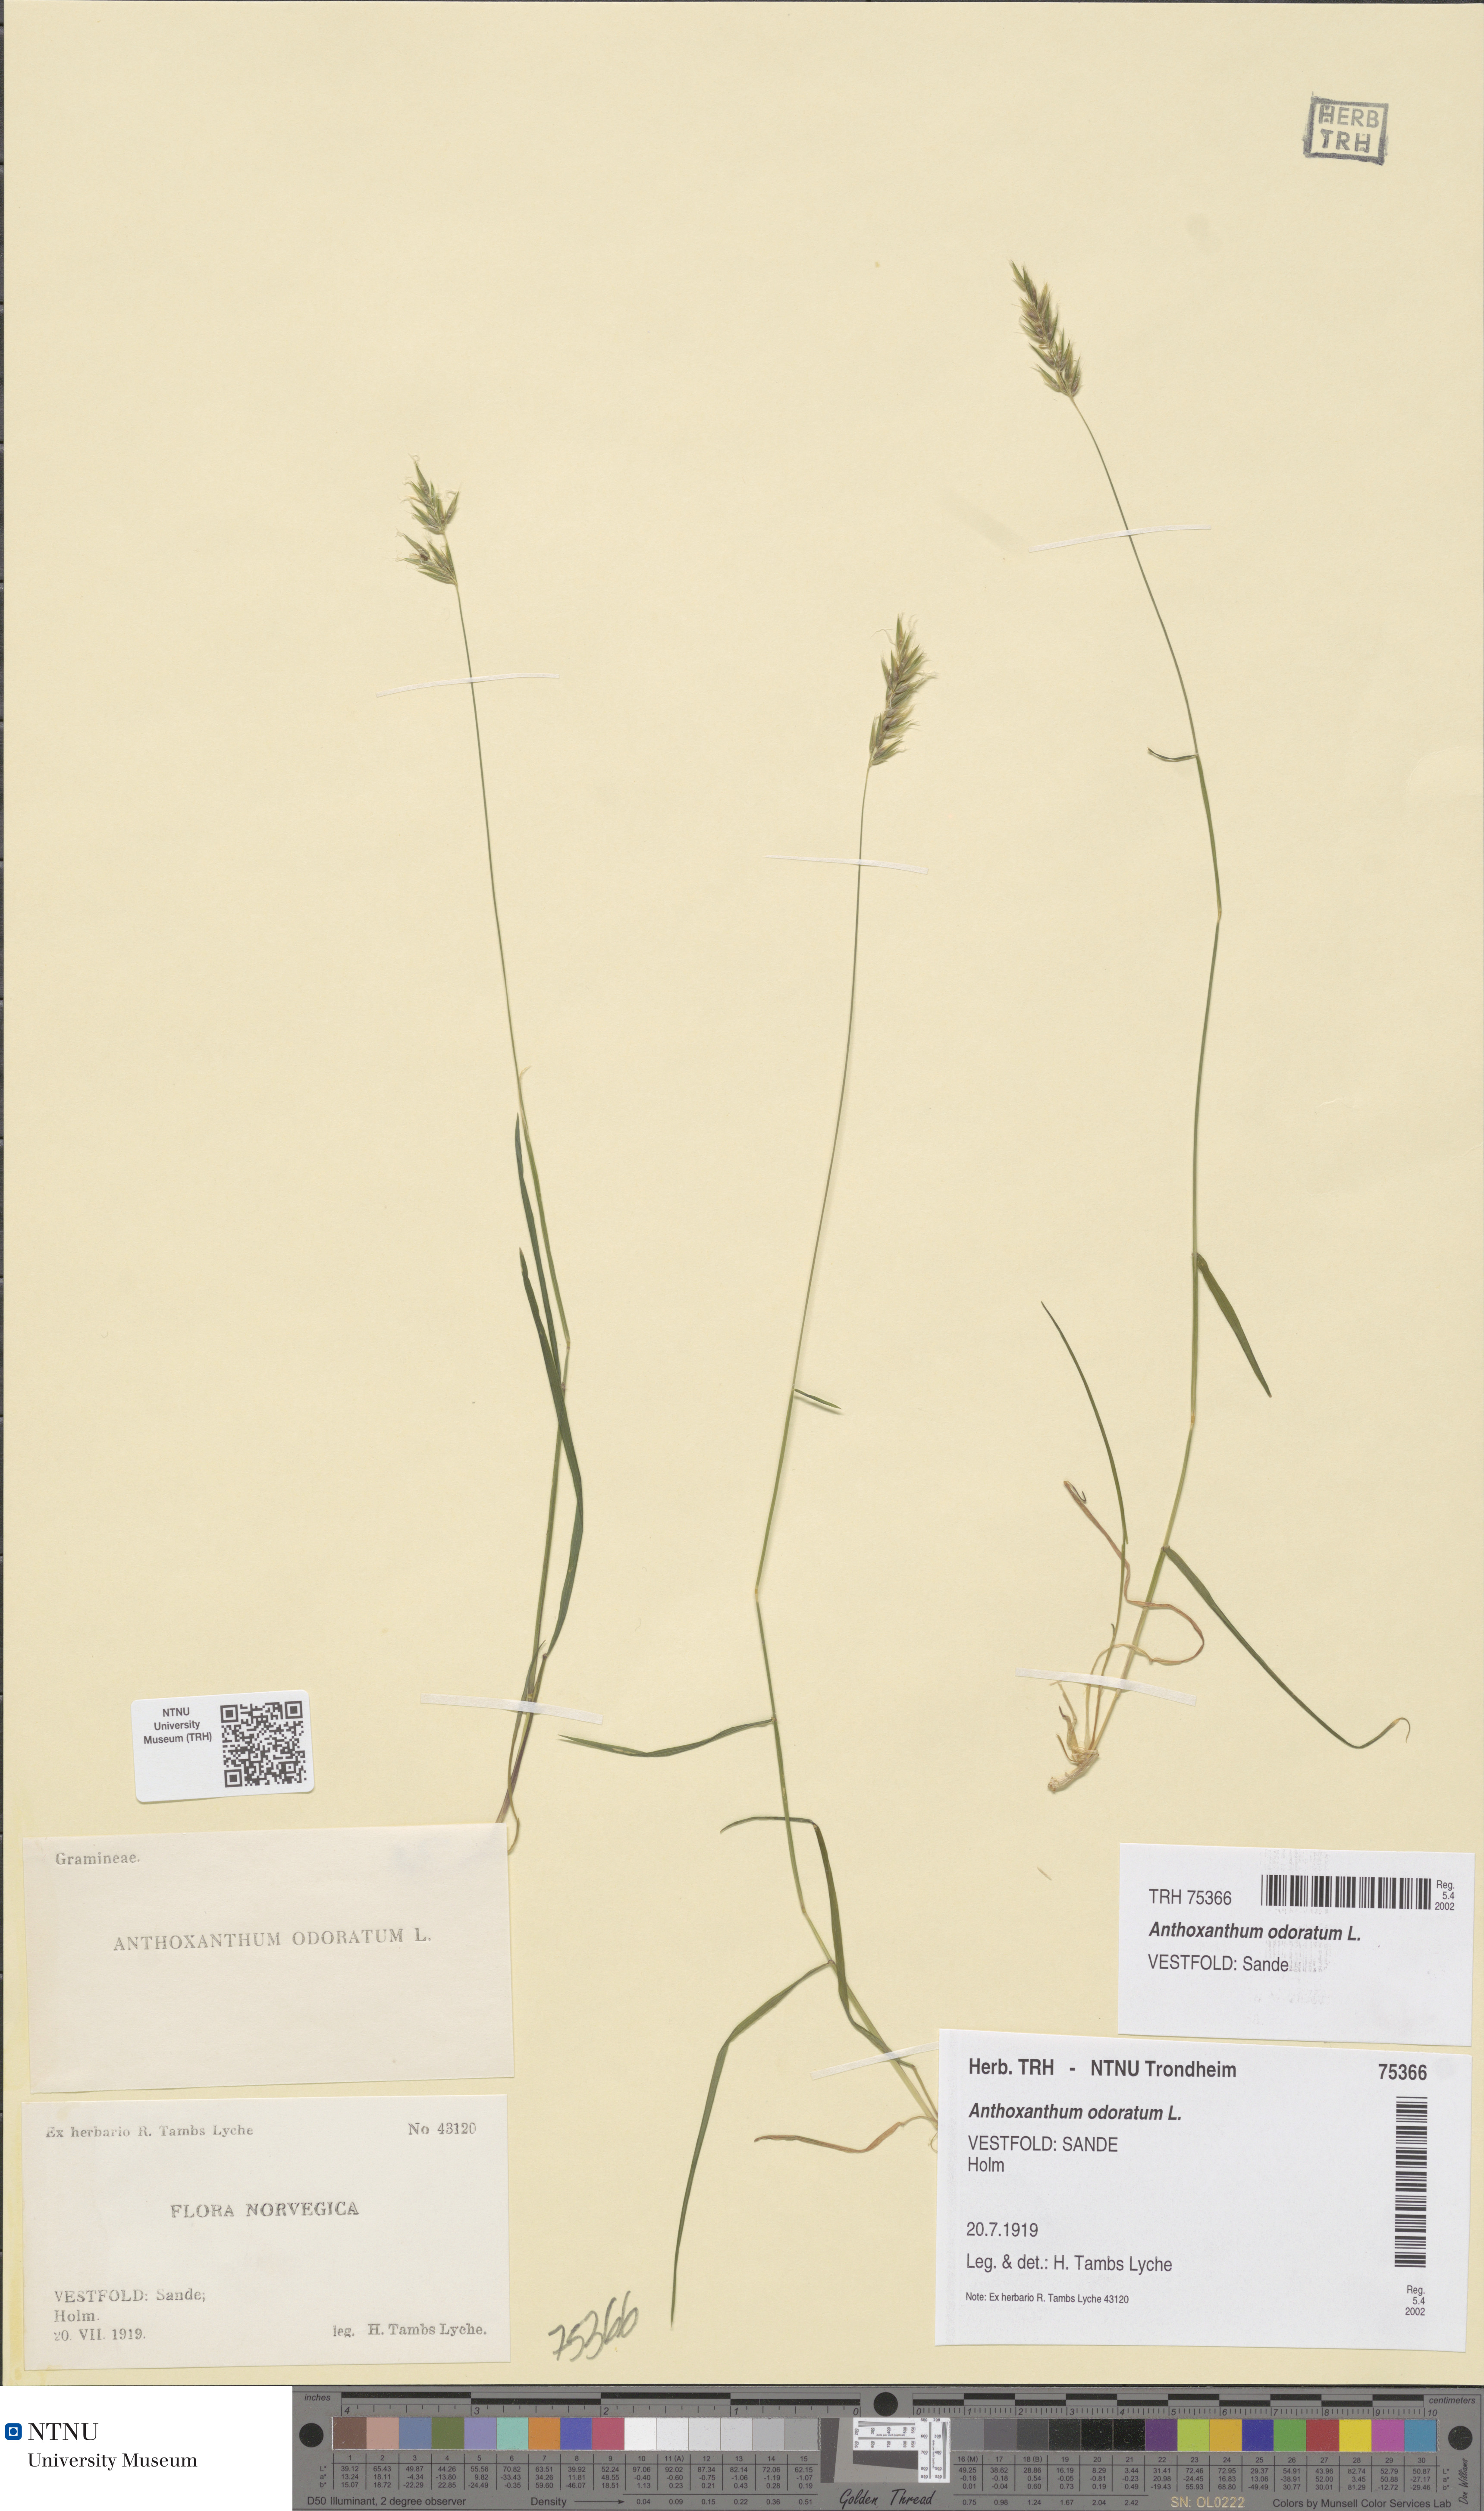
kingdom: Plantae
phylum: Tracheophyta
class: Liliopsida
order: Poales
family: Poaceae
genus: Anthoxanthum
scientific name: Anthoxanthum odoratum
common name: Sweet vernalgrass
